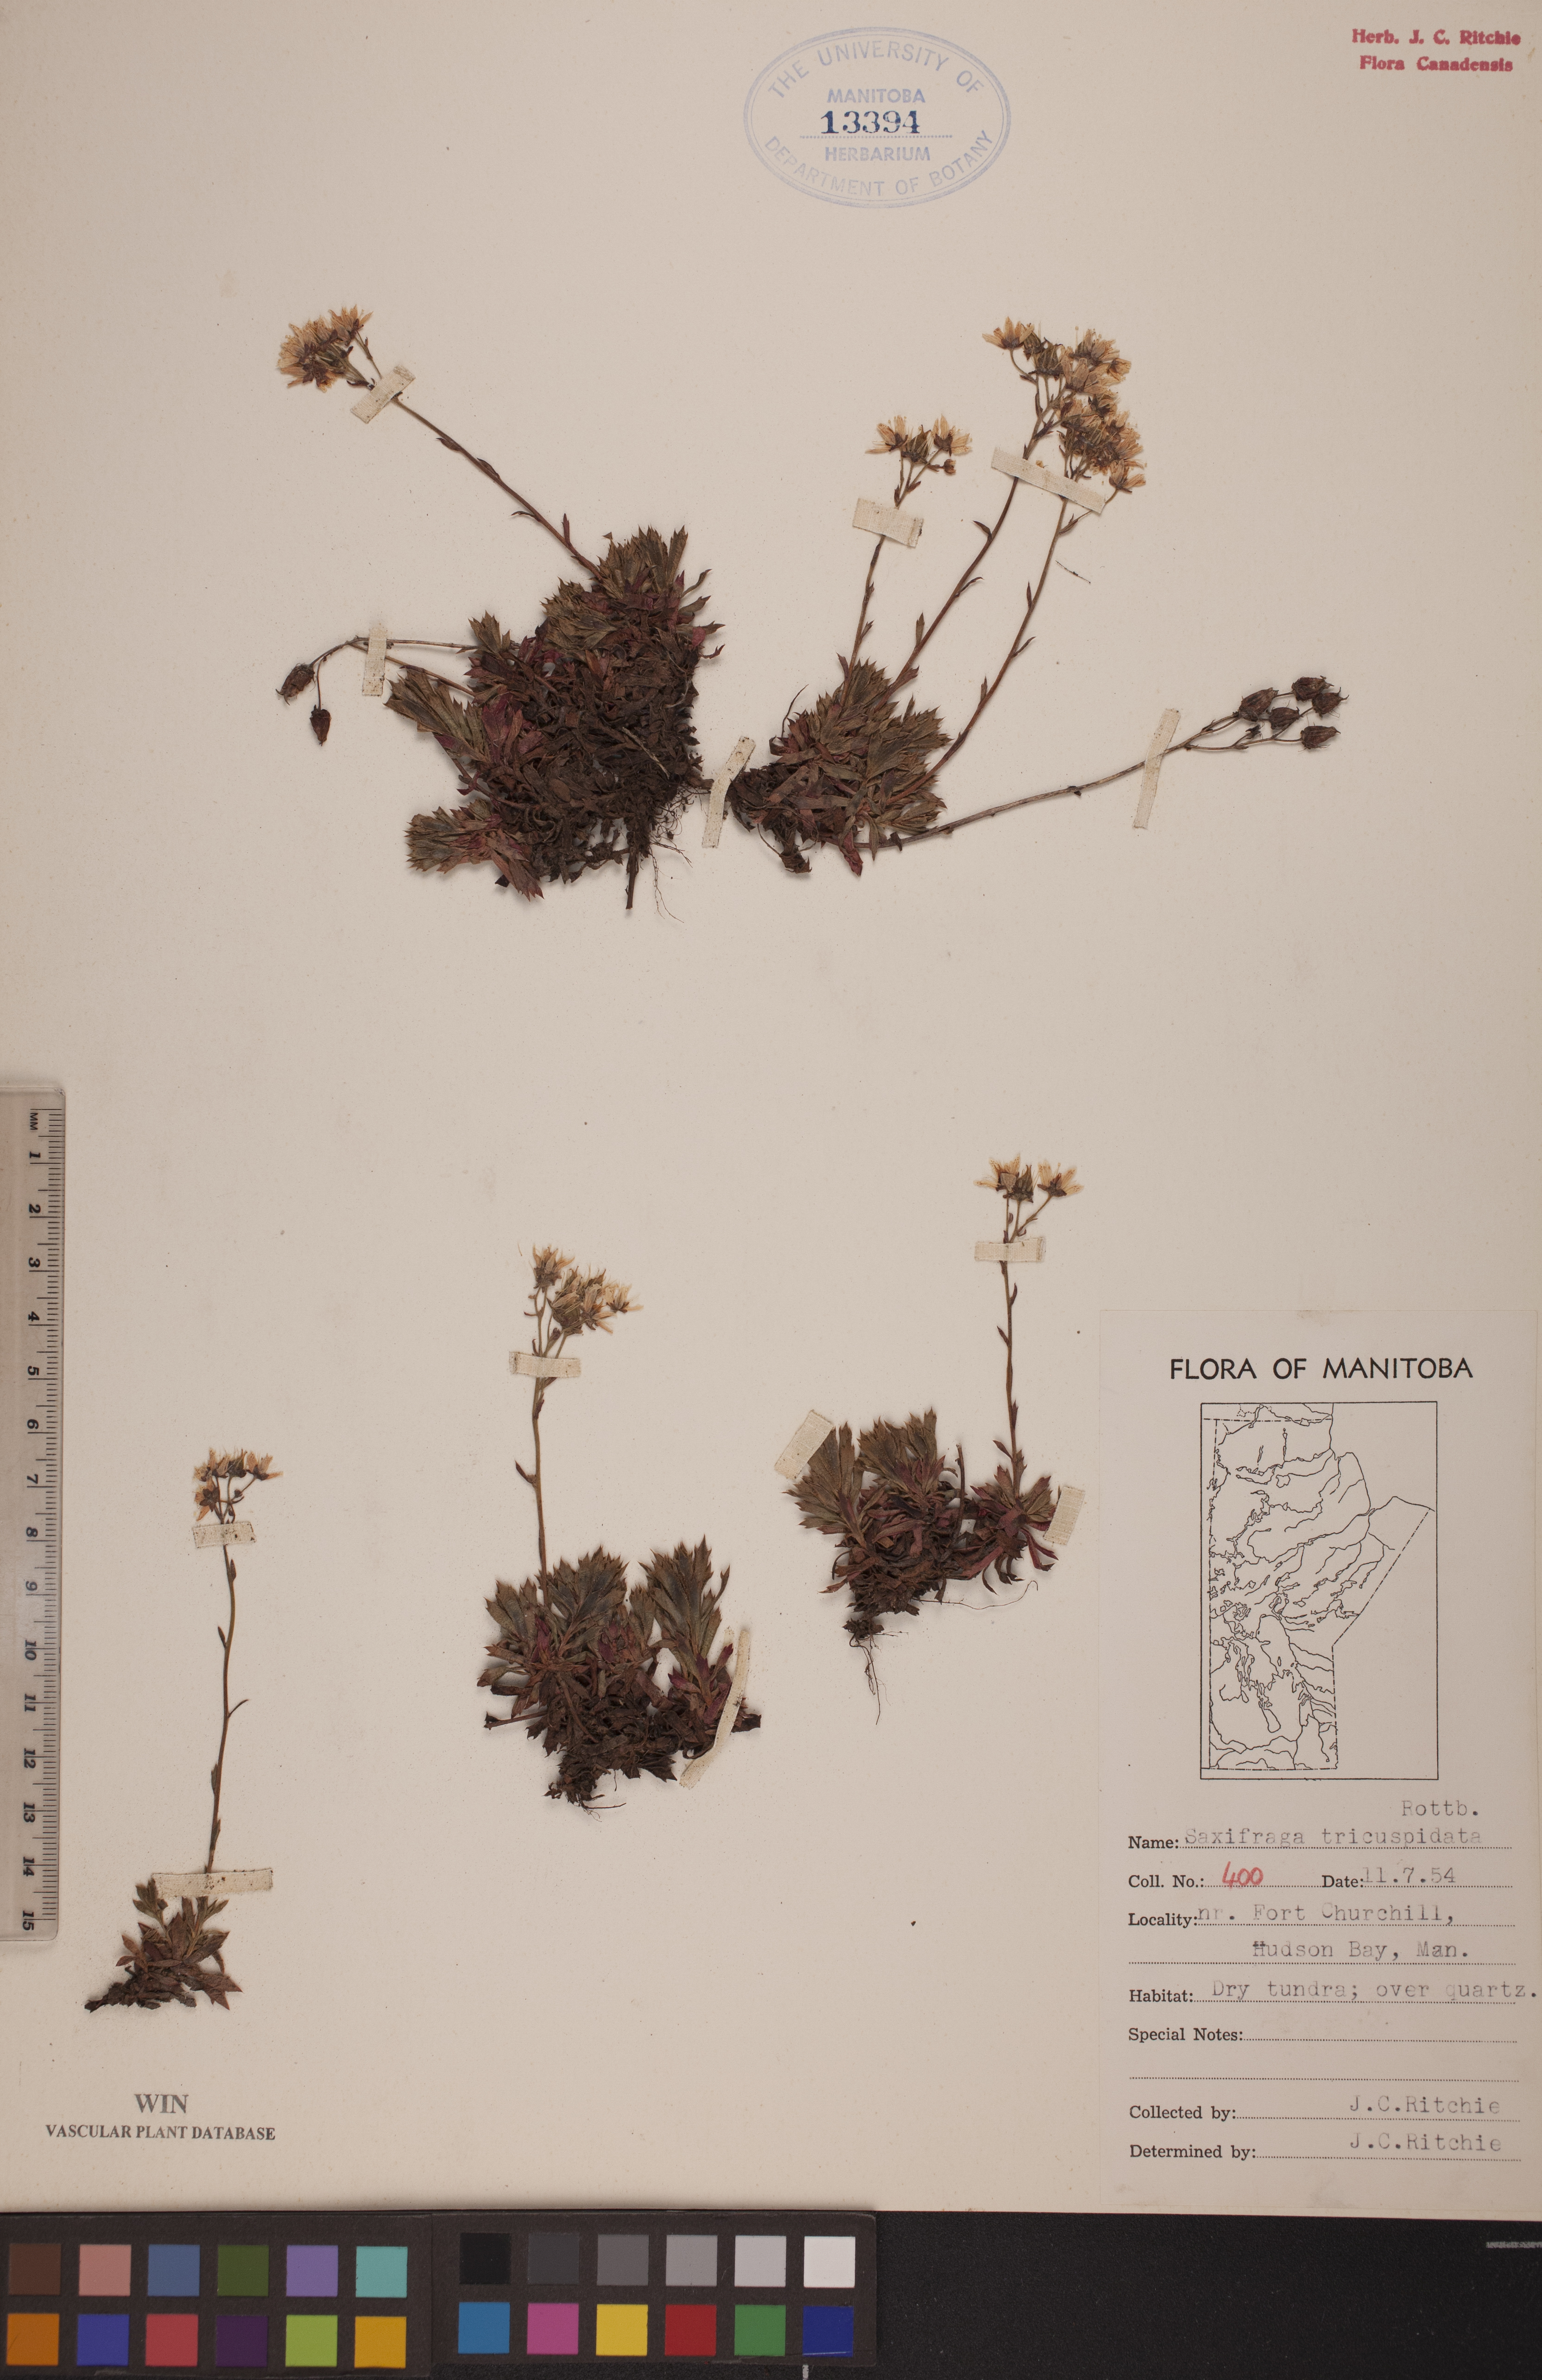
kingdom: Plantae
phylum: Tracheophyta
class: Magnoliopsida
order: Saxifragales
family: Saxifragaceae
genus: Saxifraga
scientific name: Saxifraga tricuspidata
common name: Prickly saxifrage
